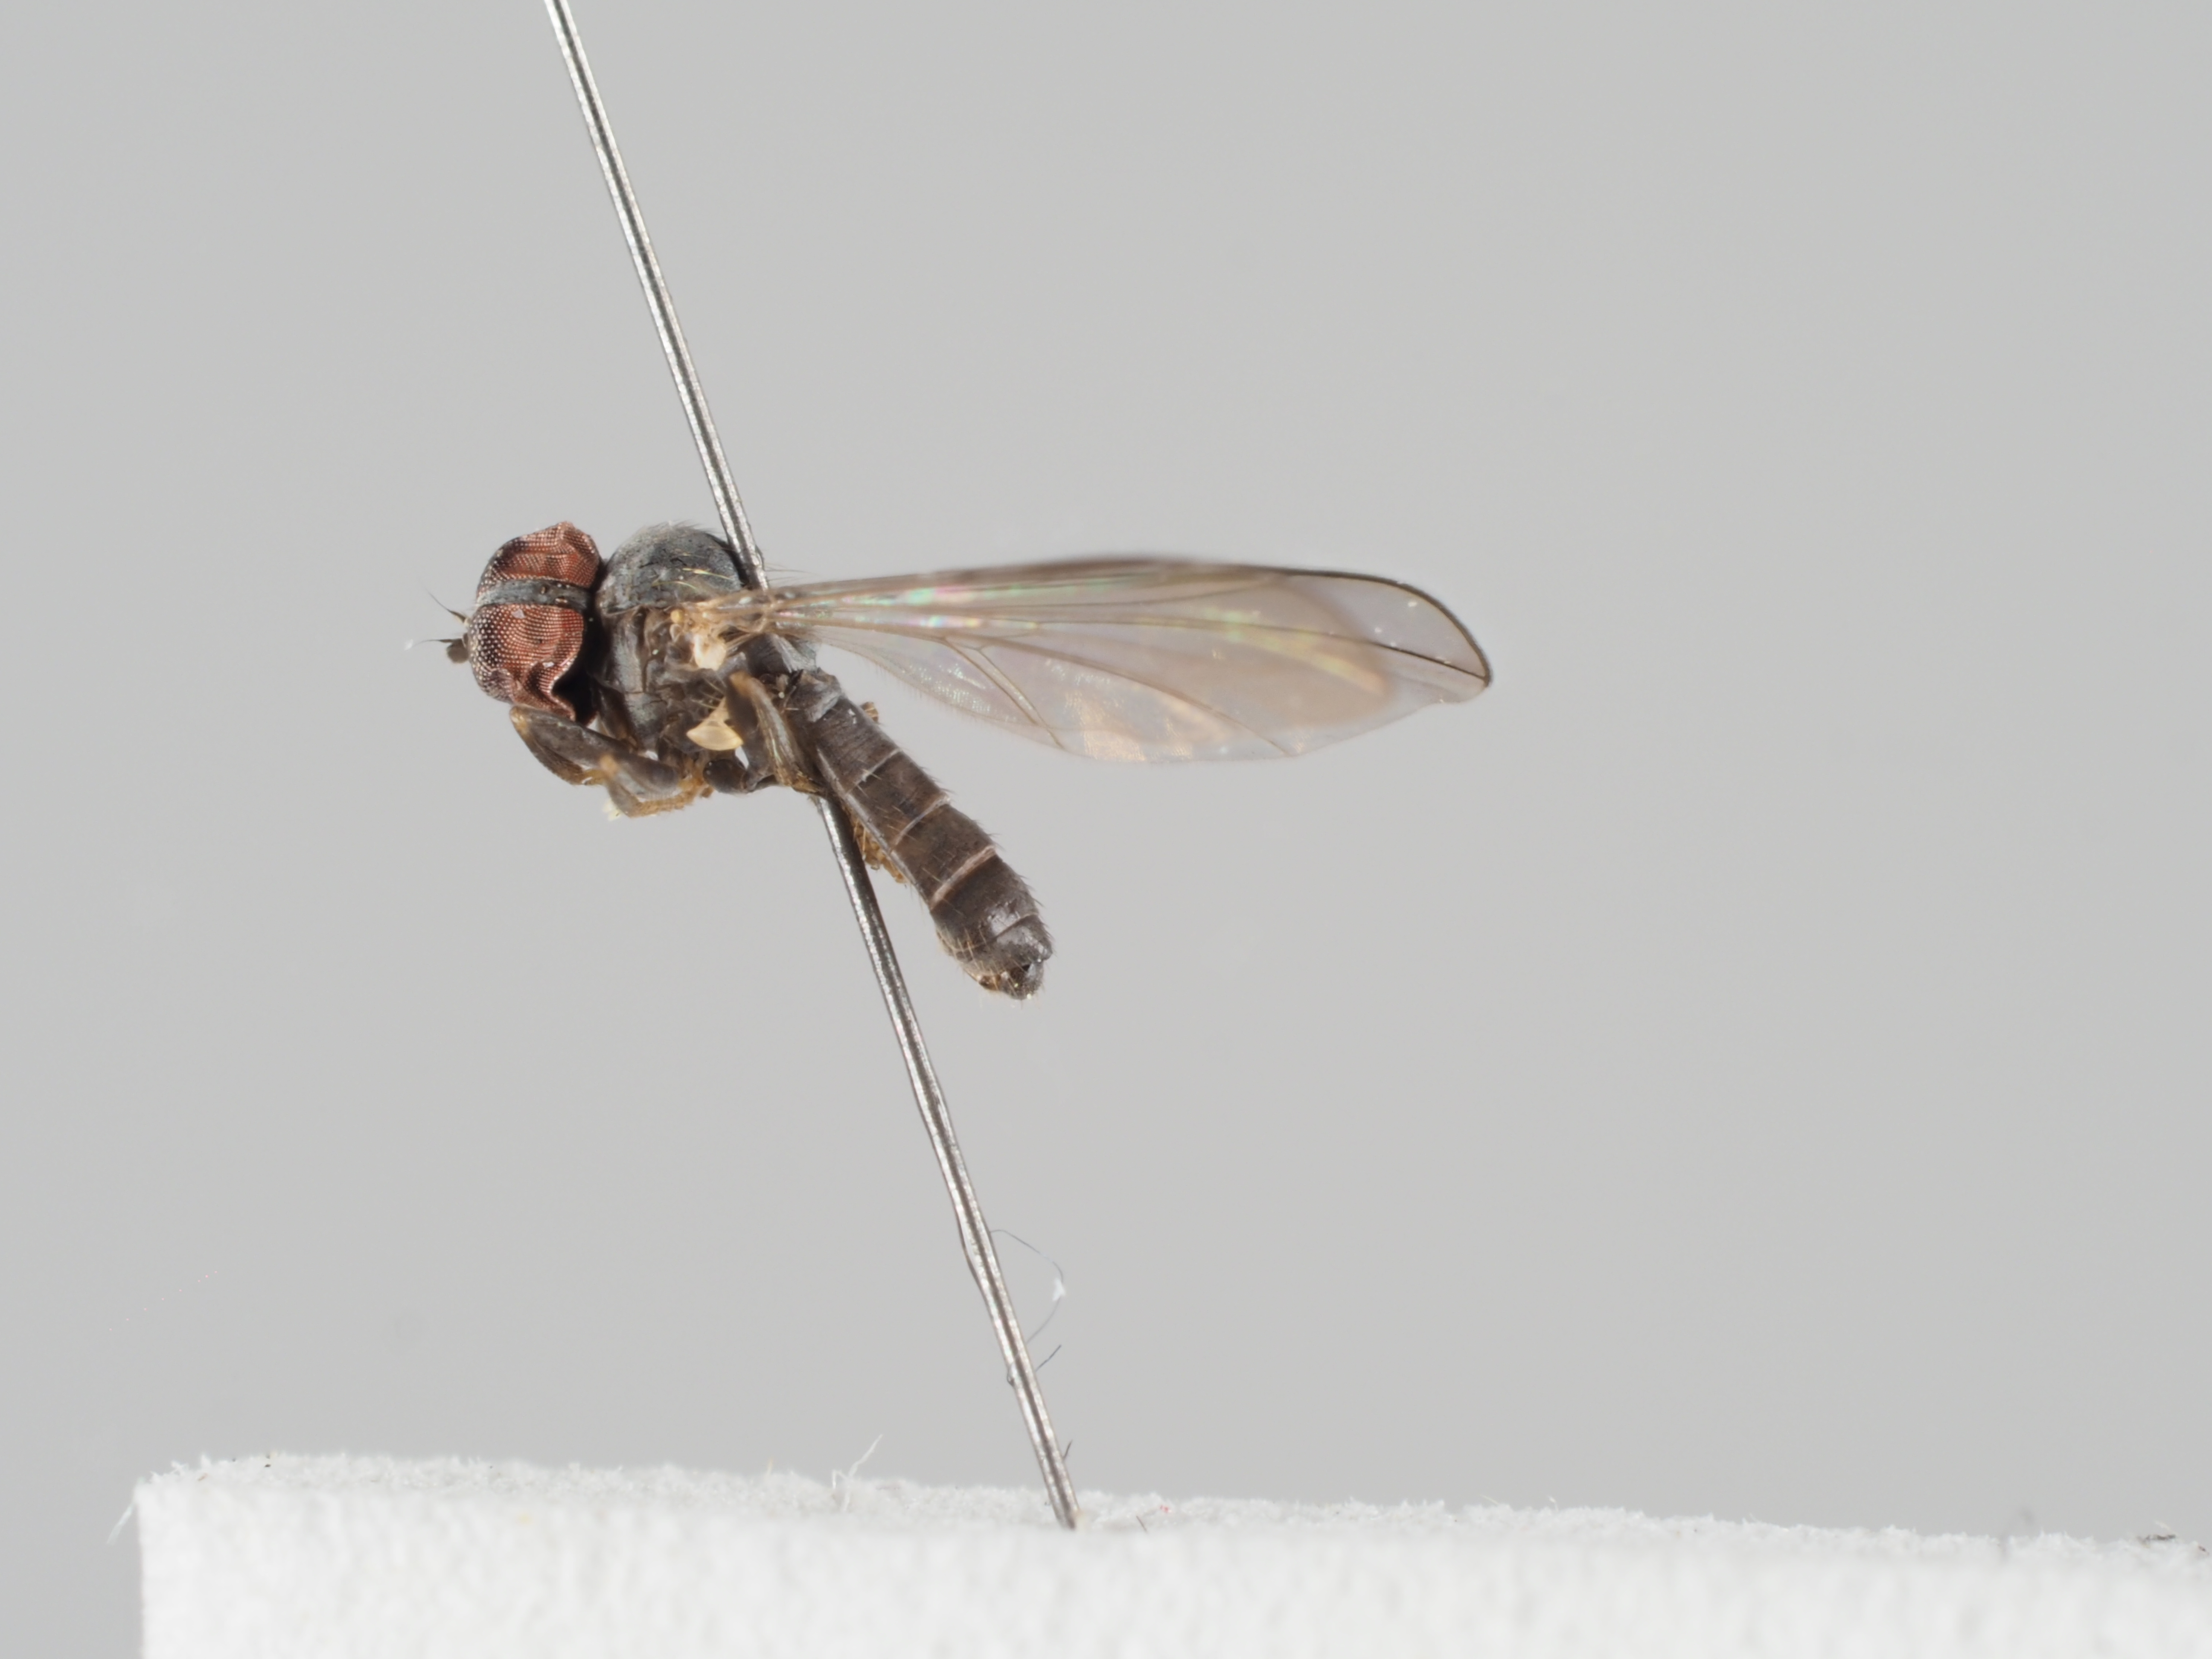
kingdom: Animalia
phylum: Arthropoda
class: Insecta
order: Diptera
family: Pipunculidae
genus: Chalarus
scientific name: Chalarus juliae
